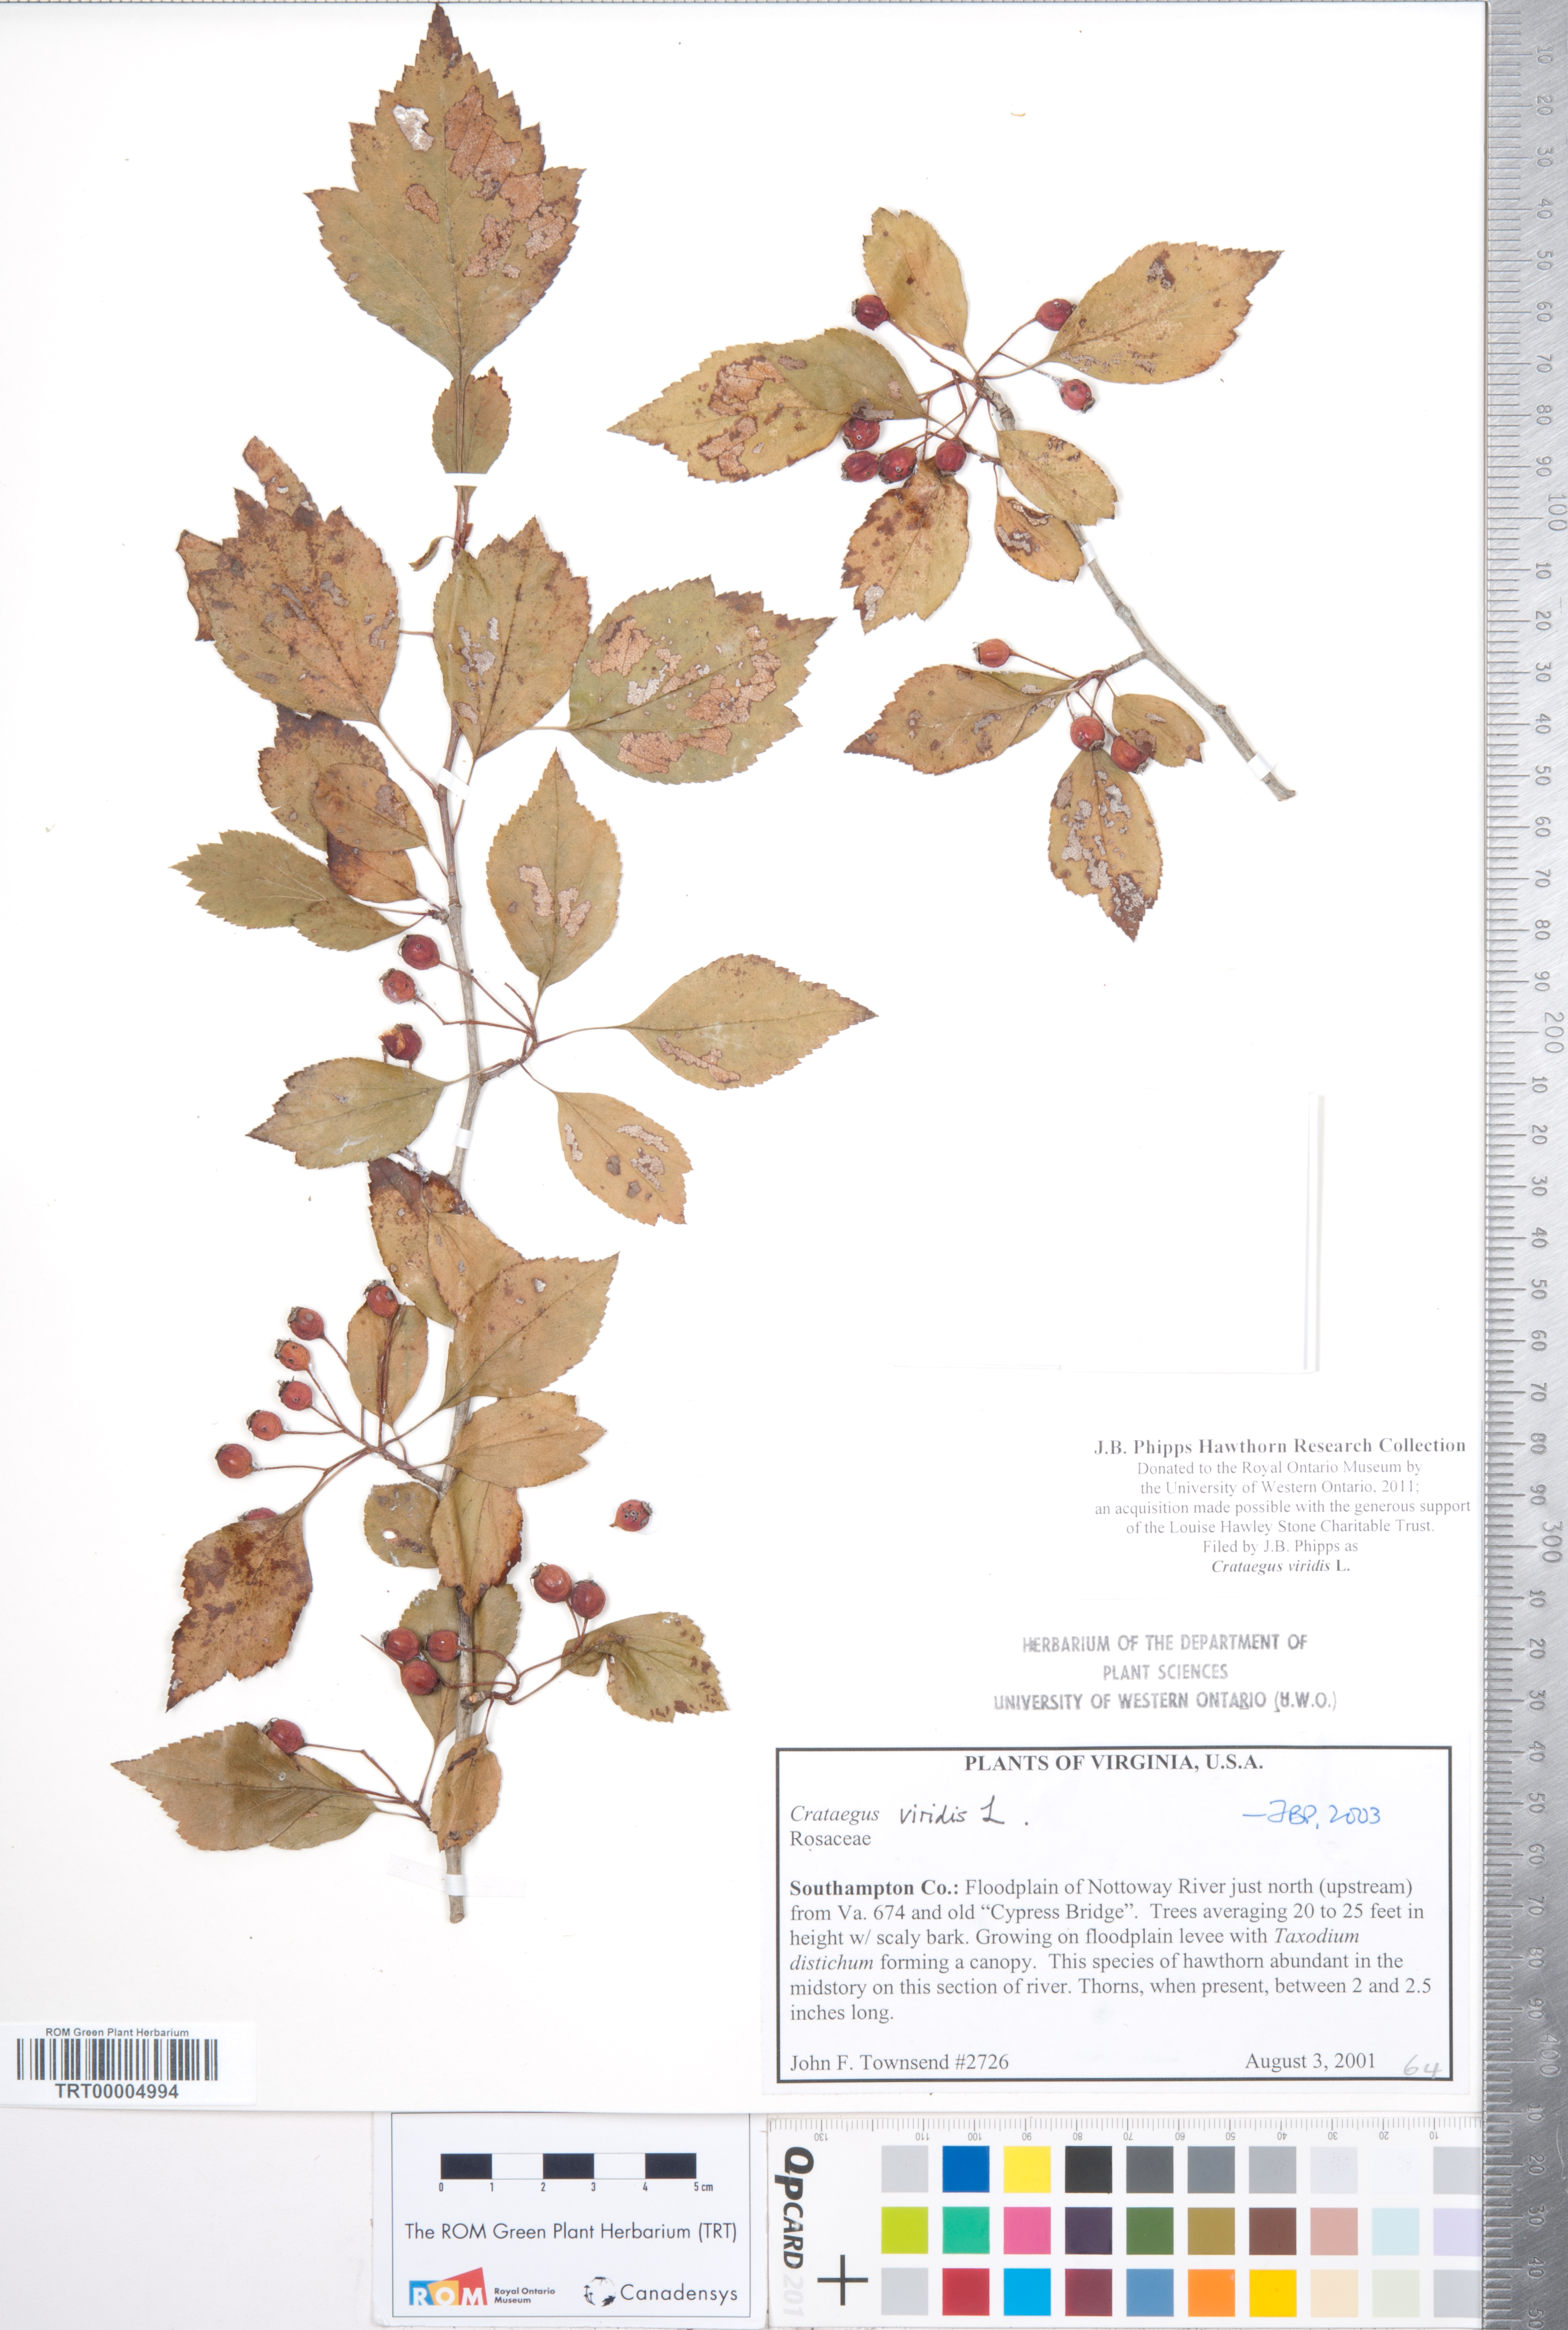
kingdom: Plantae
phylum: Tracheophyta
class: Magnoliopsida
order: Rosales
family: Rosaceae
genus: Crataegus
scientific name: Crataegus viridis
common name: Southernthorn
